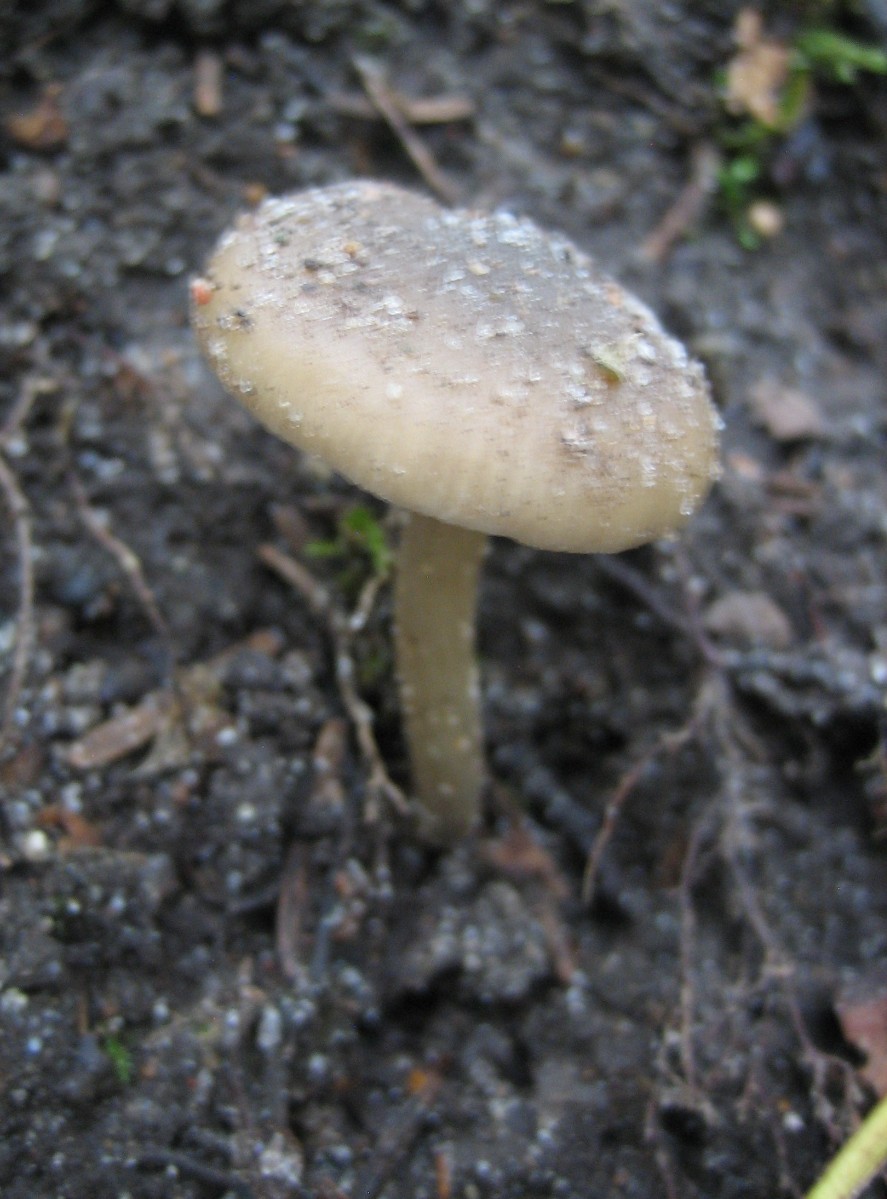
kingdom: Fungi
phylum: Basidiomycota
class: Agaricomycetes
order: Agaricales
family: Entolomataceae
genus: Entoloma
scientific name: Entoloma
